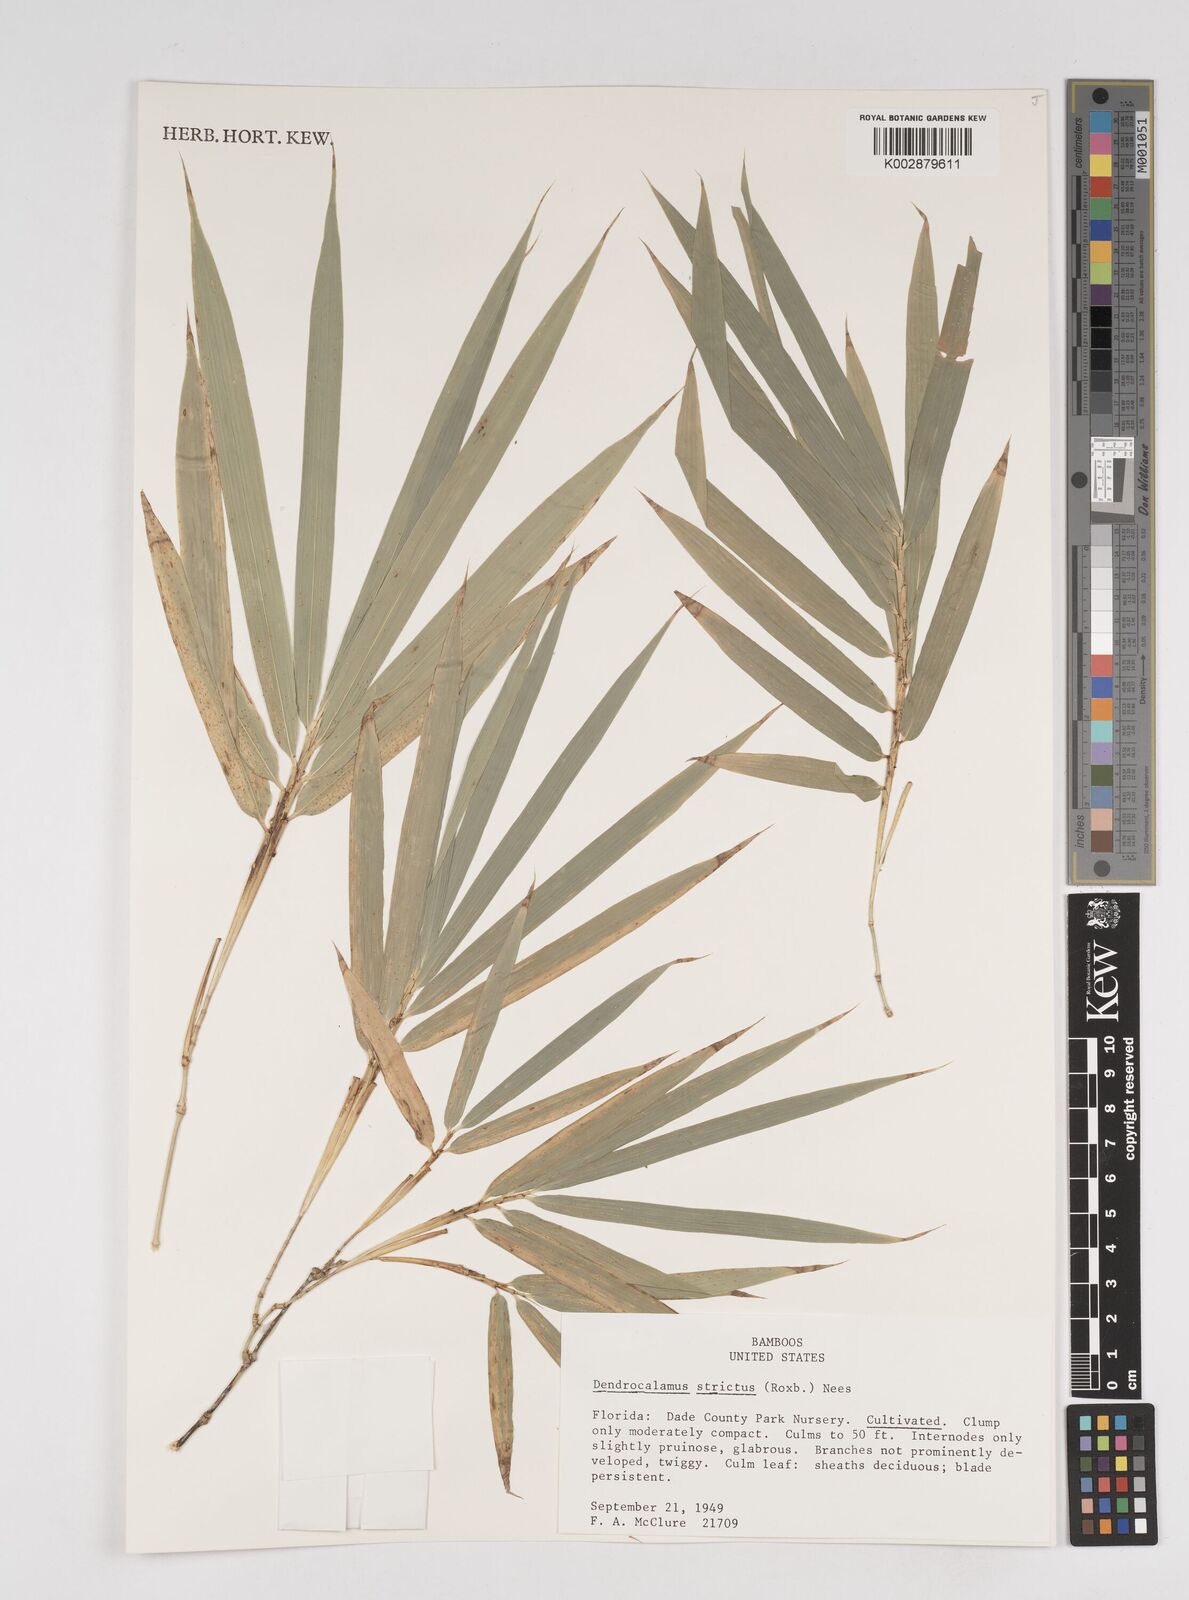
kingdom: Plantae
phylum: Tracheophyta
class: Liliopsida
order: Poales
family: Poaceae
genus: Dendrocalamus
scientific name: Dendrocalamus strictus
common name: Male bamboo
